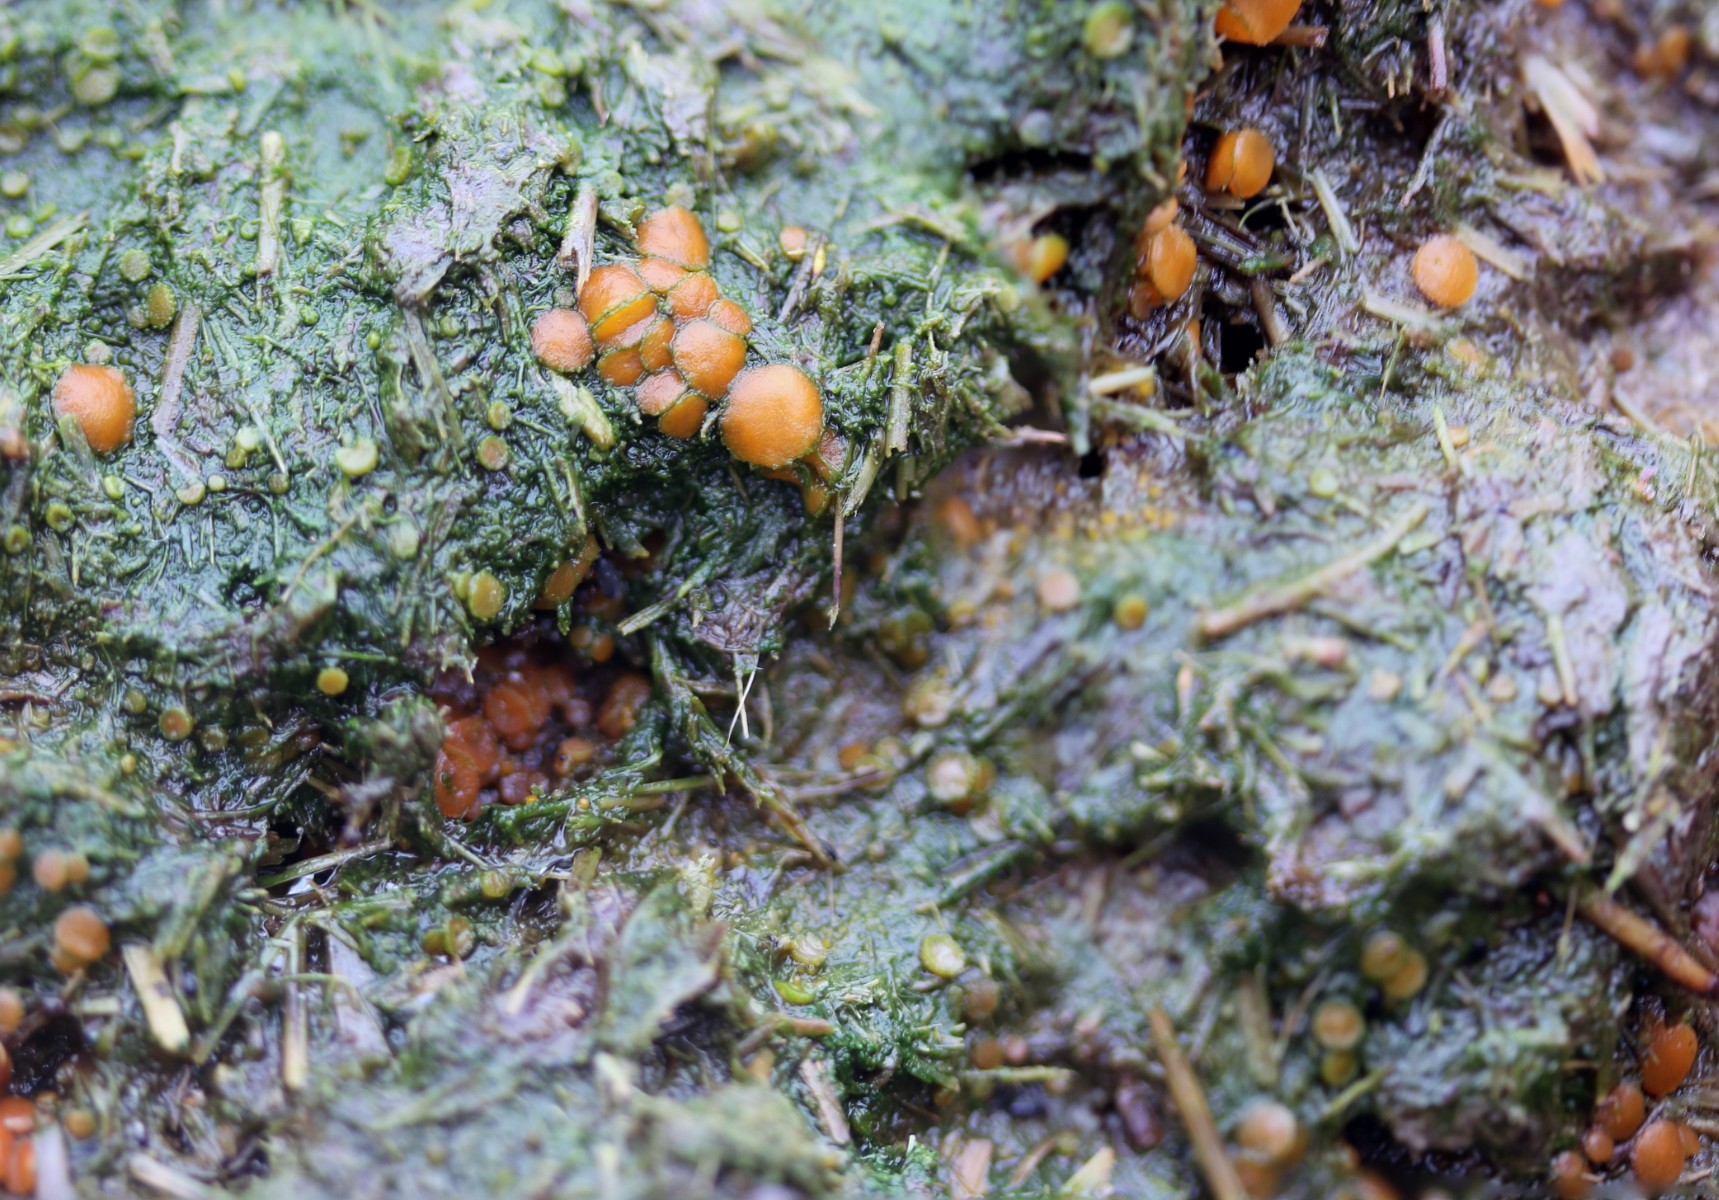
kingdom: Fungi
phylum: Ascomycota
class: Pezizomycetes
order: Pezizales
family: Pyronemataceae
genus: Cheilymenia
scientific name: Cheilymenia granulata
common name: møgbæger
